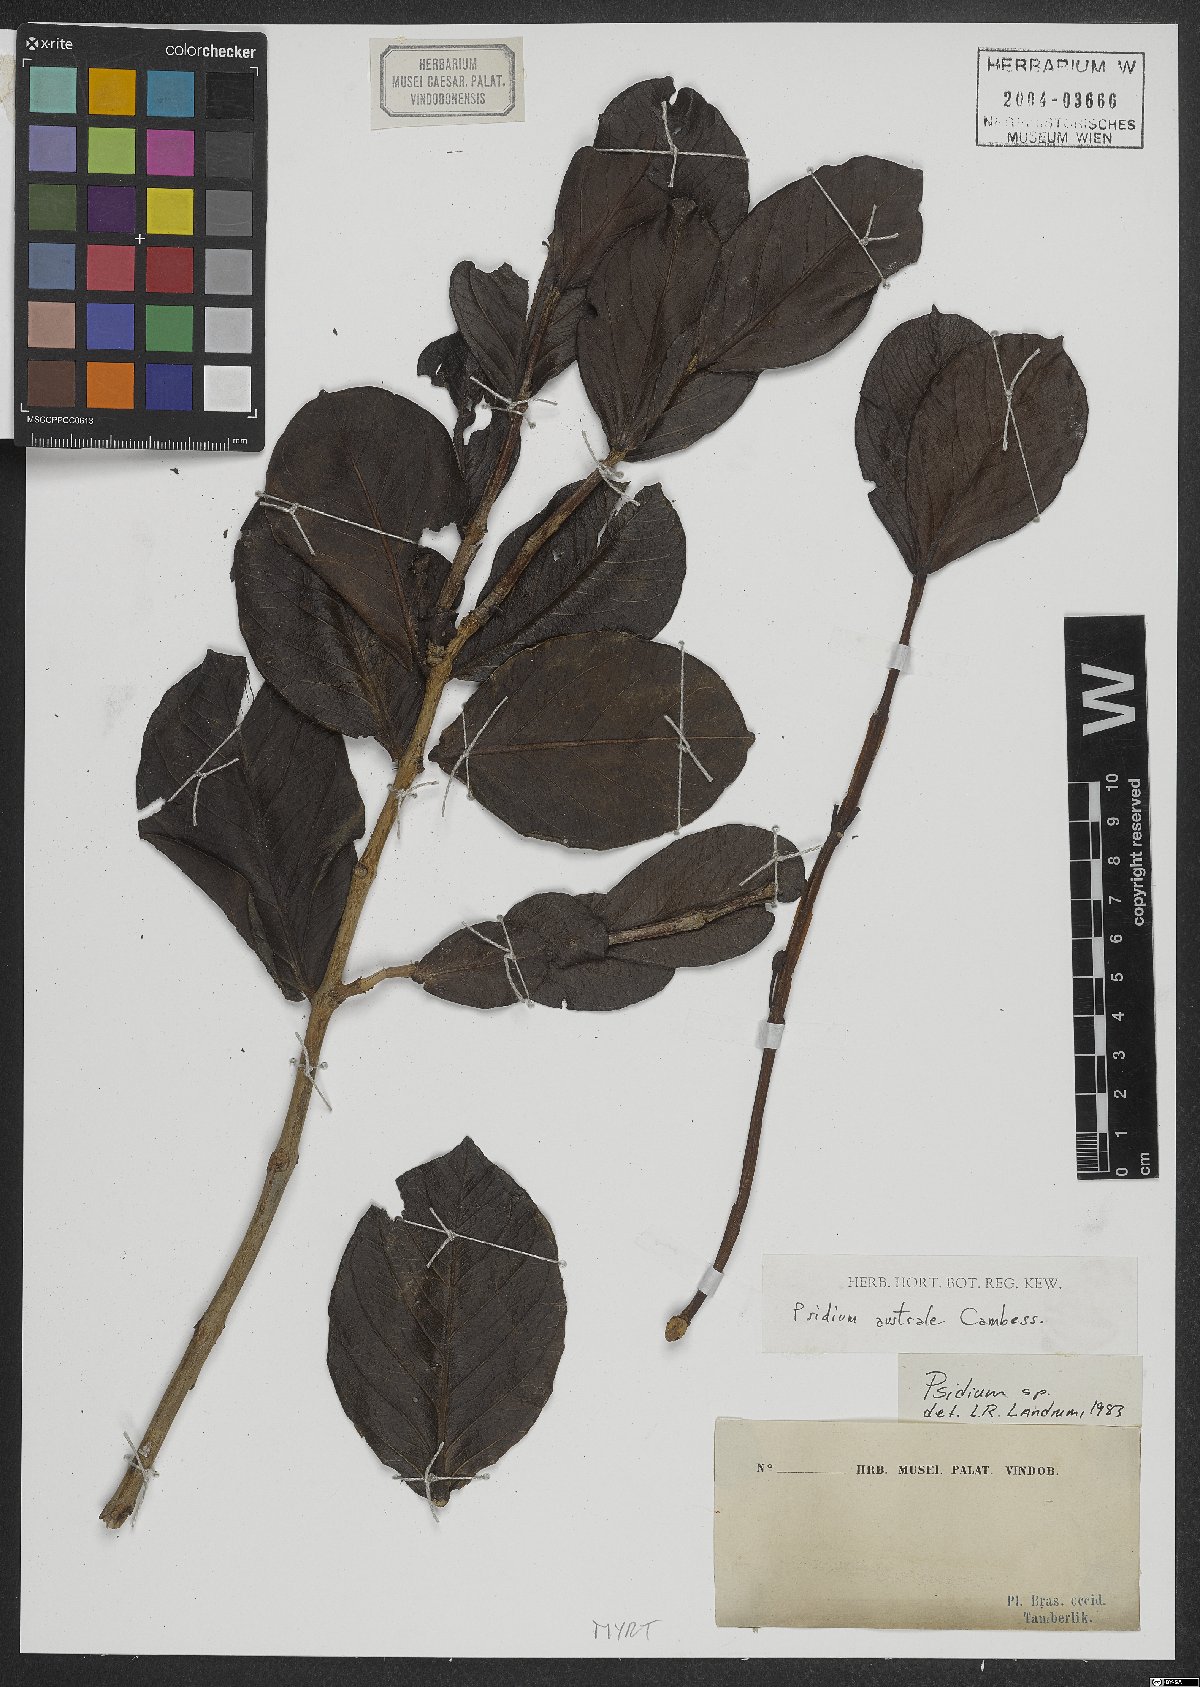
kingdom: Plantae
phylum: Tracheophyta
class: Magnoliopsida
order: Myrtales
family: Myrtaceae
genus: Psidium
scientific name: Psidium australe
